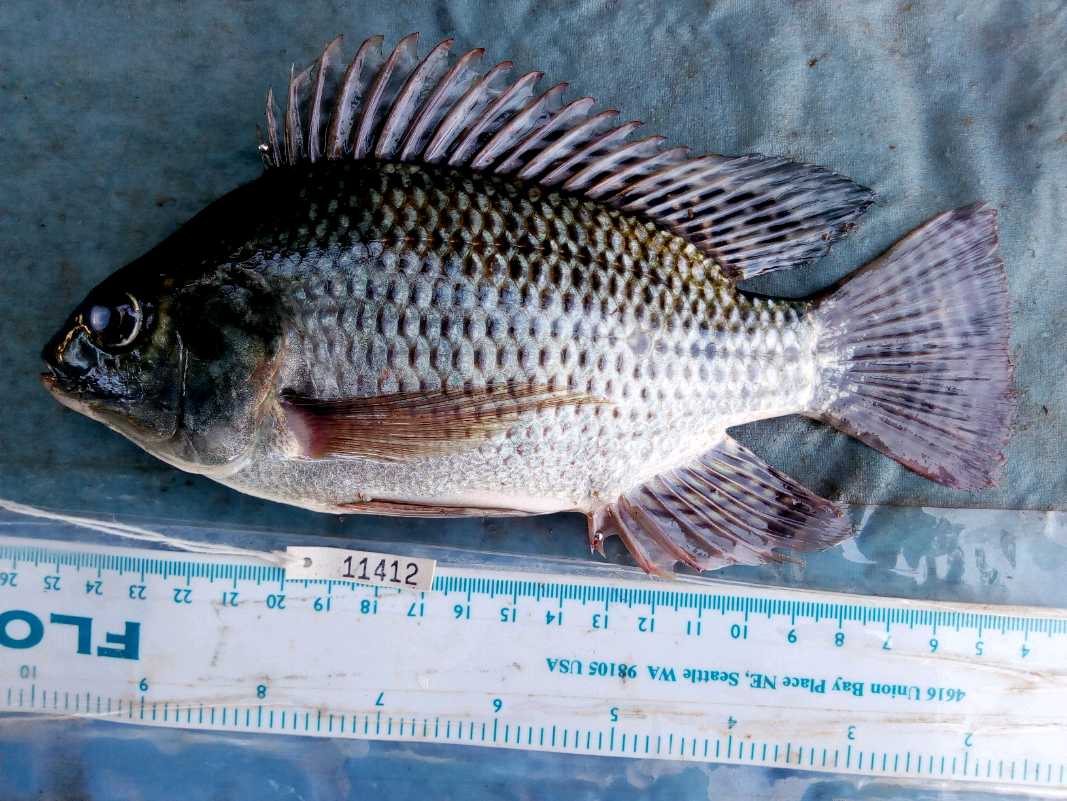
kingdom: Animalia
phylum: Chordata
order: Perciformes
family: Cichlidae
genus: Oreochromis
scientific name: Oreochromis niloticus
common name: Nile tilapia
